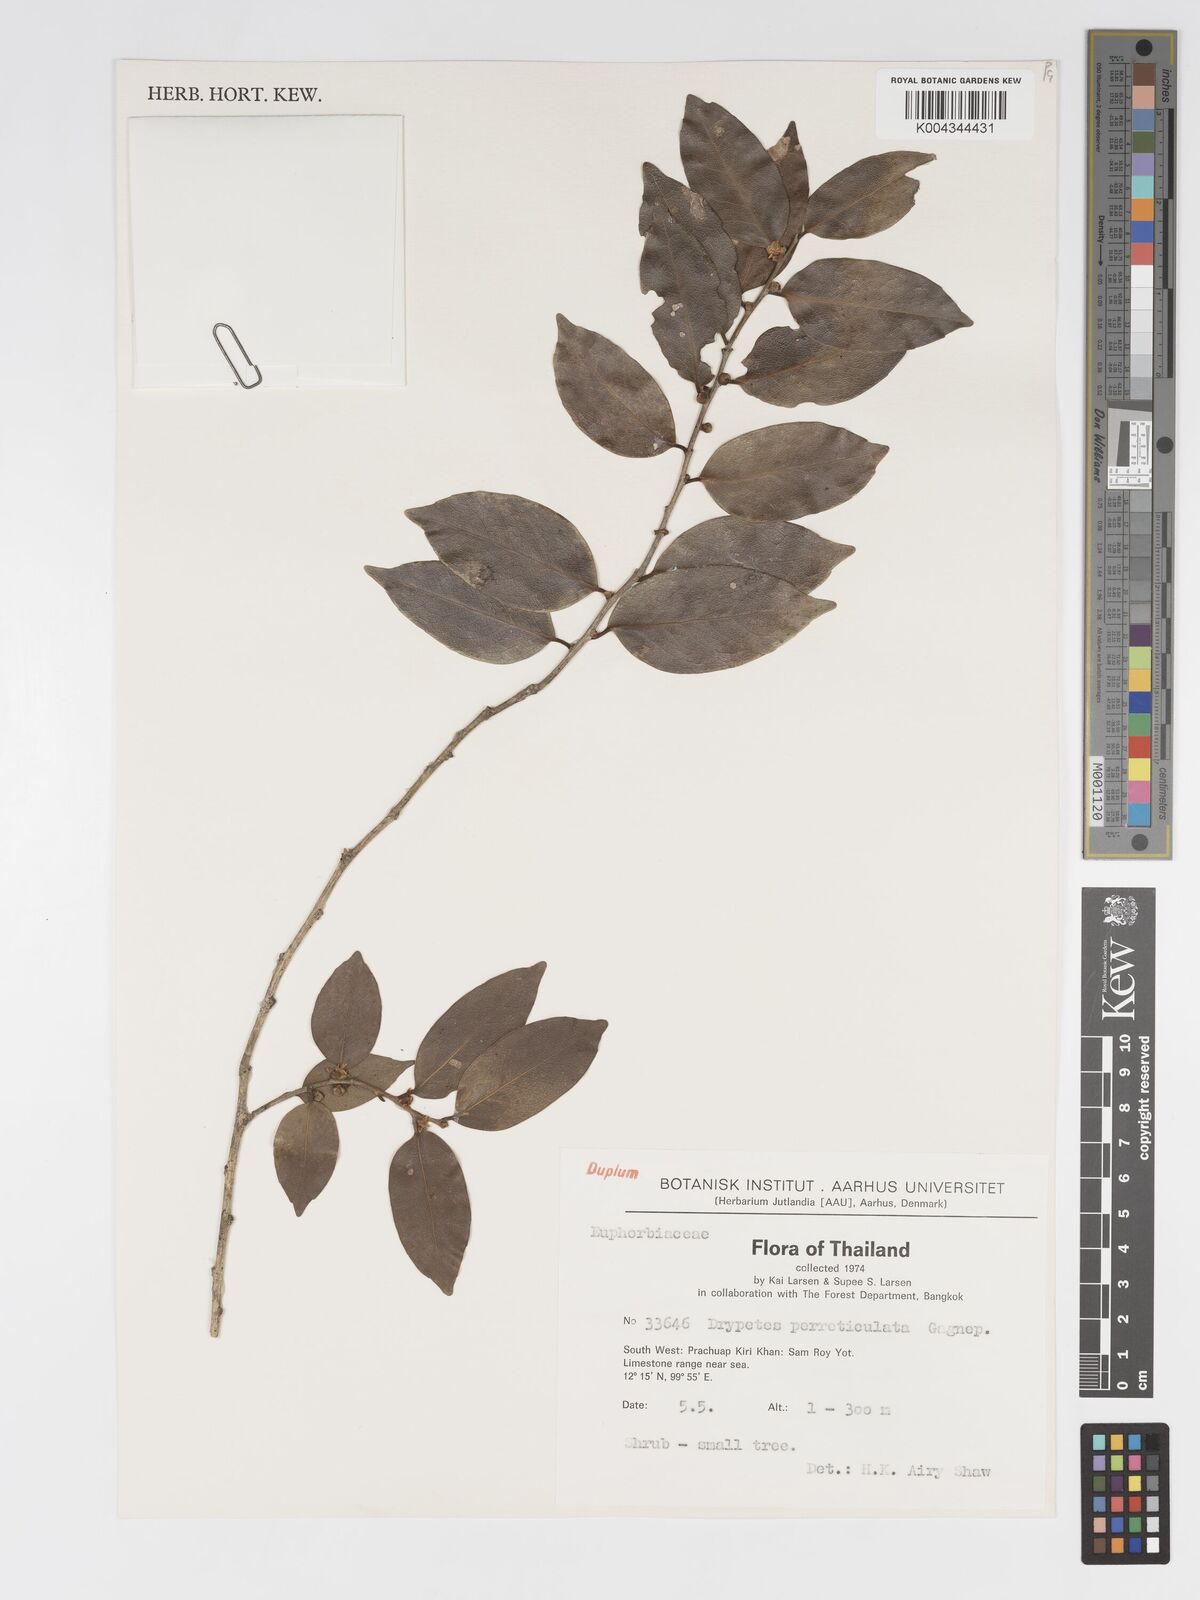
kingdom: Plantae
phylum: Tracheophyta
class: Magnoliopsida
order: Malpighiales
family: Putranjivaceae
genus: Drypetes
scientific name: Drypetes perreticulata
